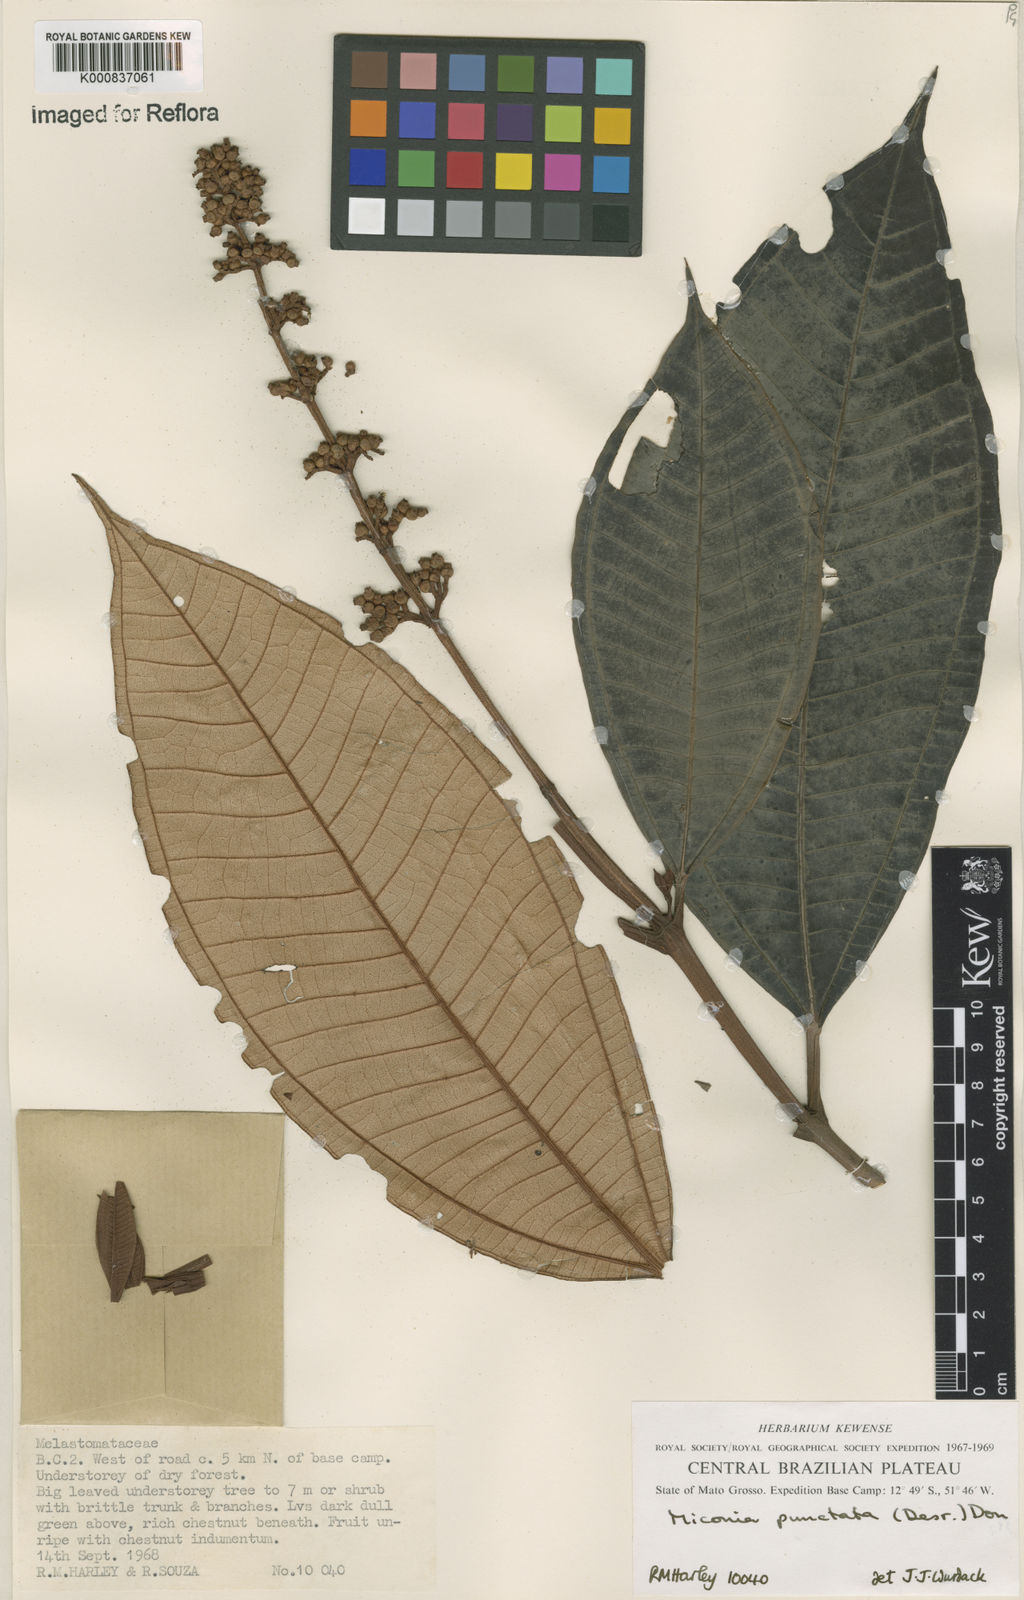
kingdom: Plantae
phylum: Tracheophyta
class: Magnoliopsida
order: Myrtales
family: Melastomataceae
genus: Miconia
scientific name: Miconia punctata
